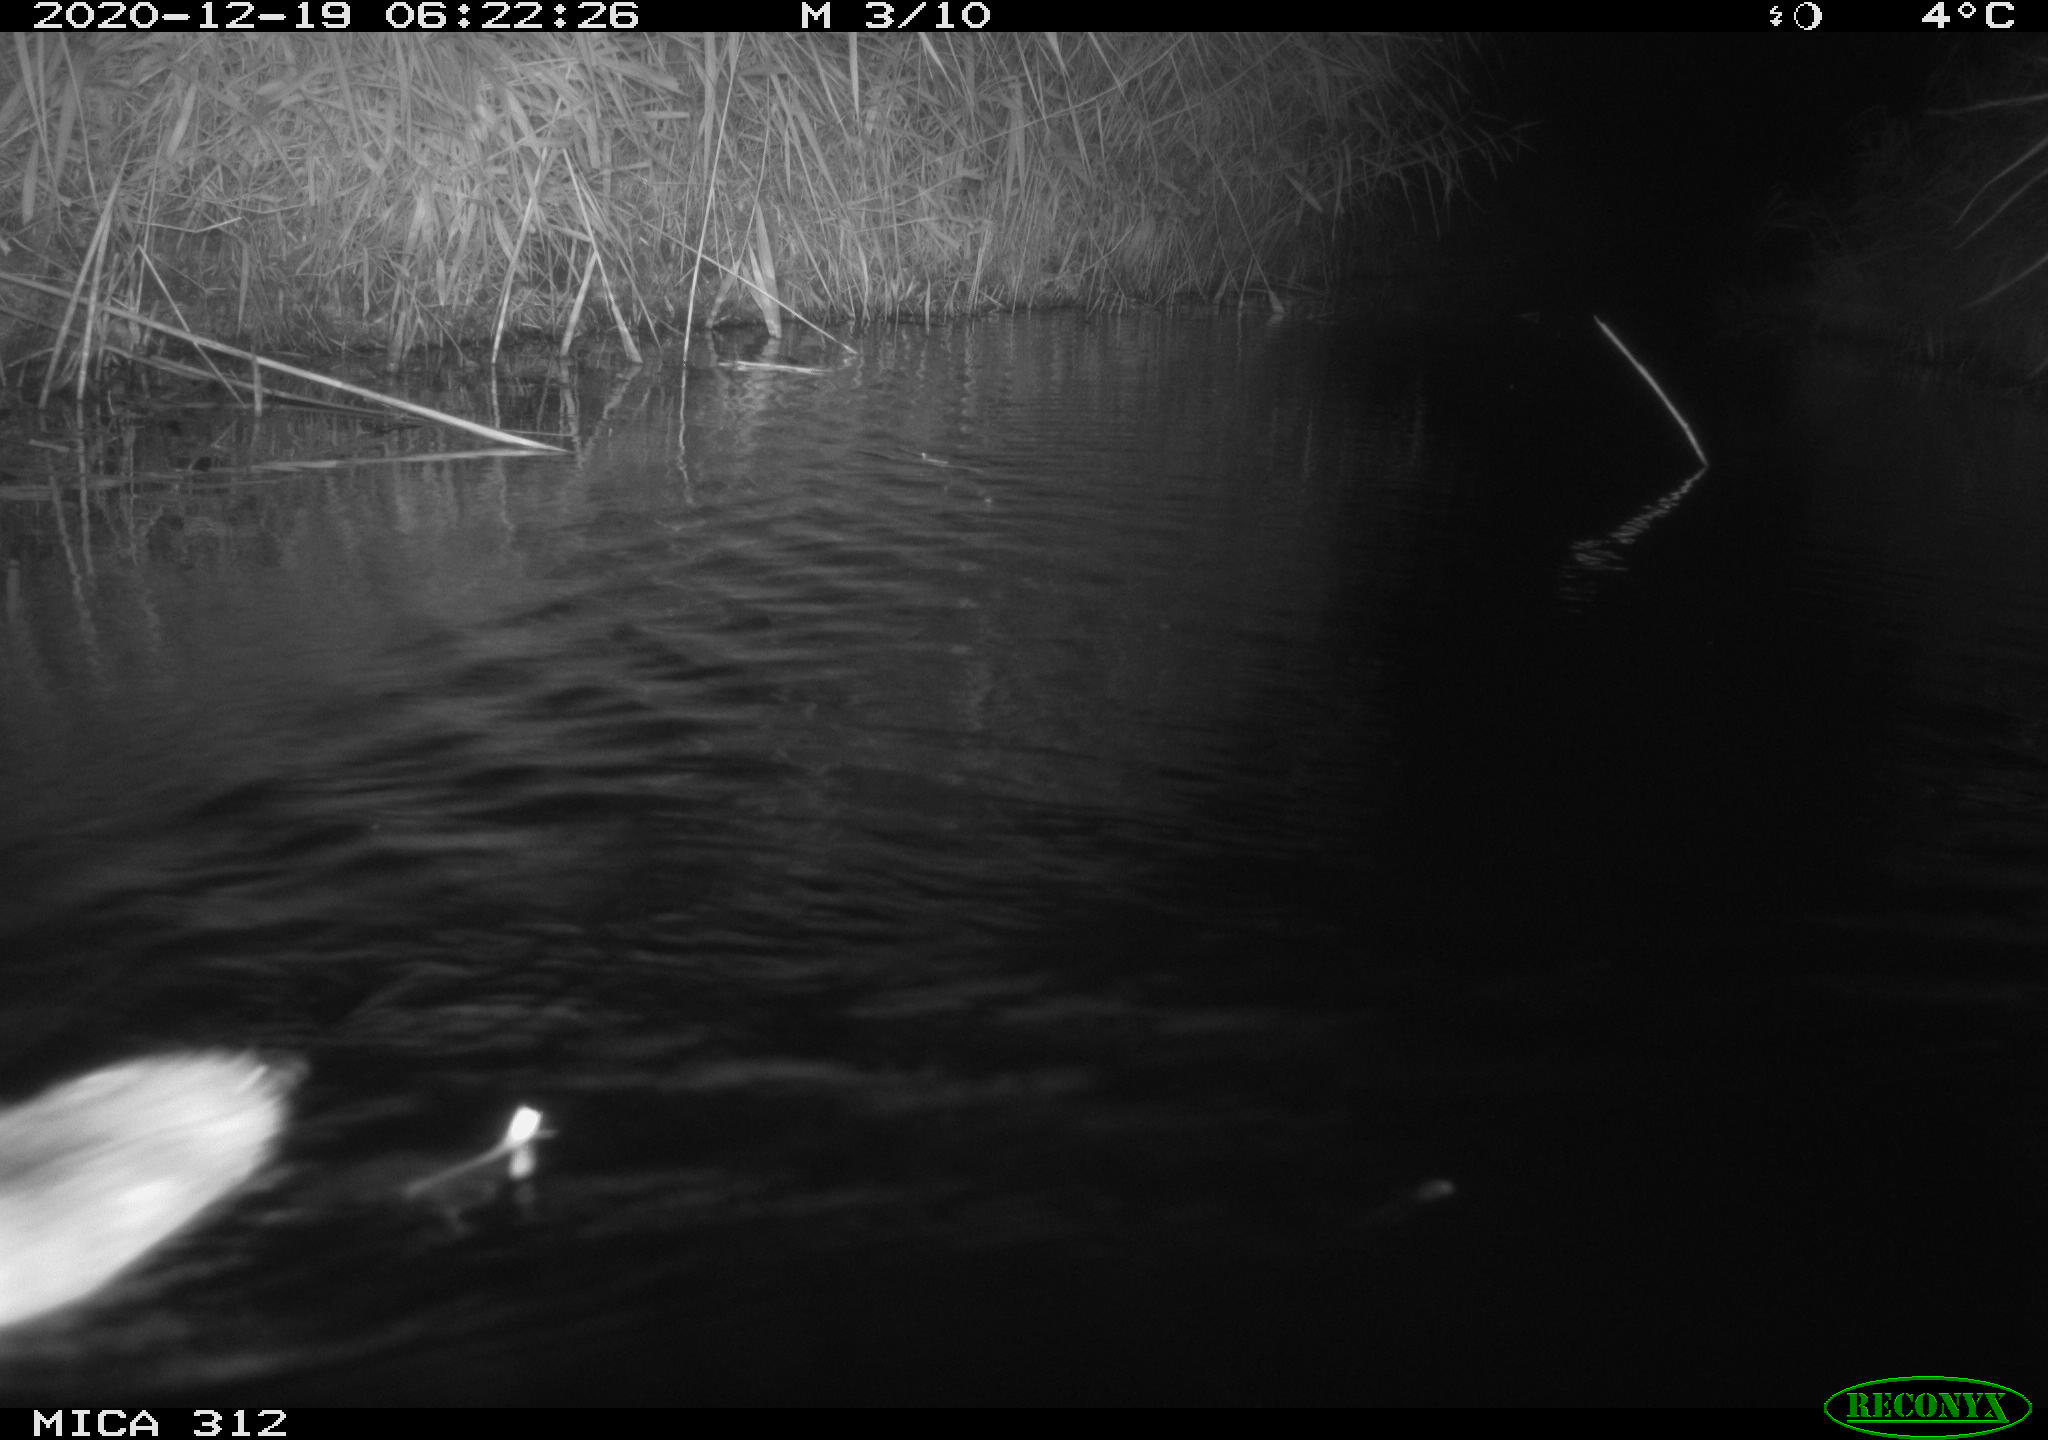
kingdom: Animalia
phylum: Chordata
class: Mammalia
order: Rodentia
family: Muridae
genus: Rattus
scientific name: Rattus norvegicus
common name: Brown rat
